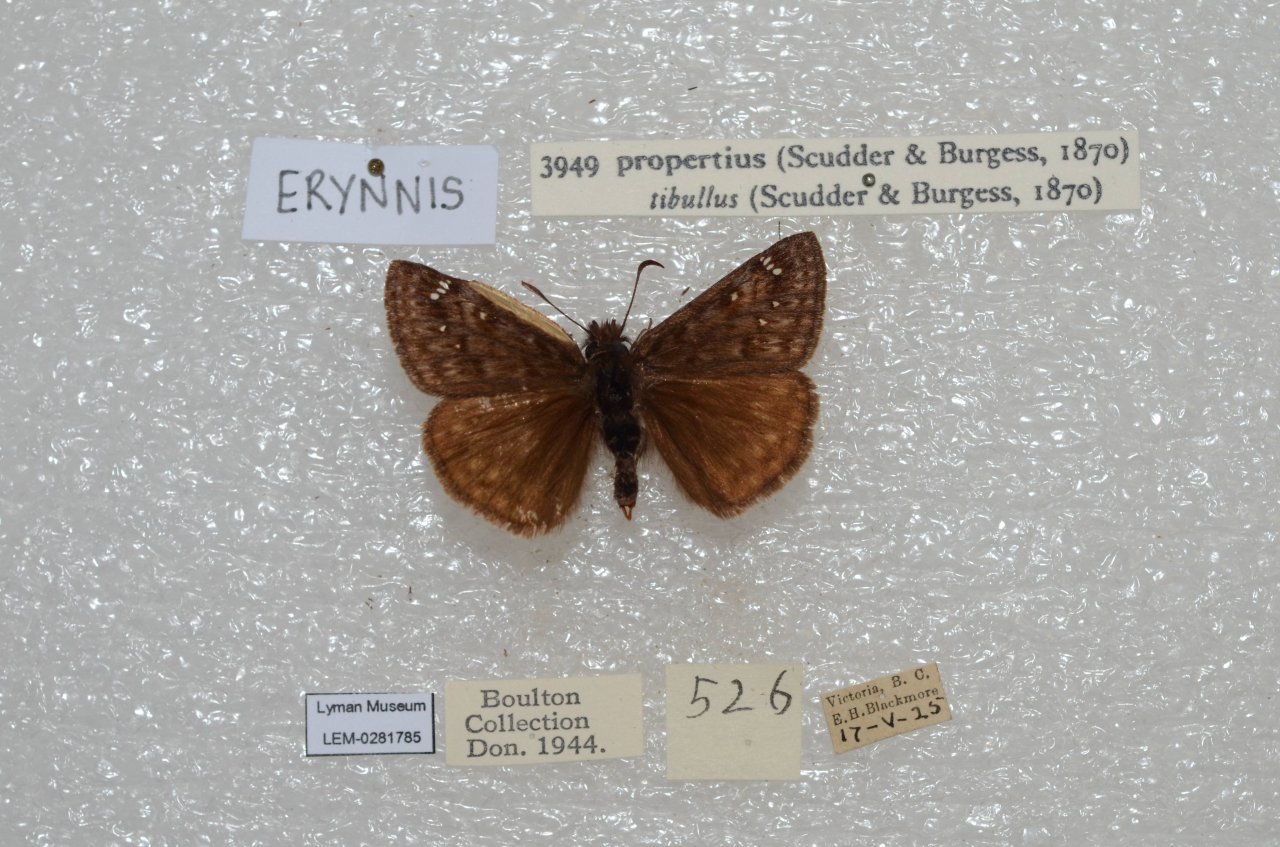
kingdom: Animalia
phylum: Arthropoda
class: Insecta
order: Lepidoptera
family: Hesperiidae
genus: Erynnis
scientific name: Erynnis propertius
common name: Propertius Duskywing
